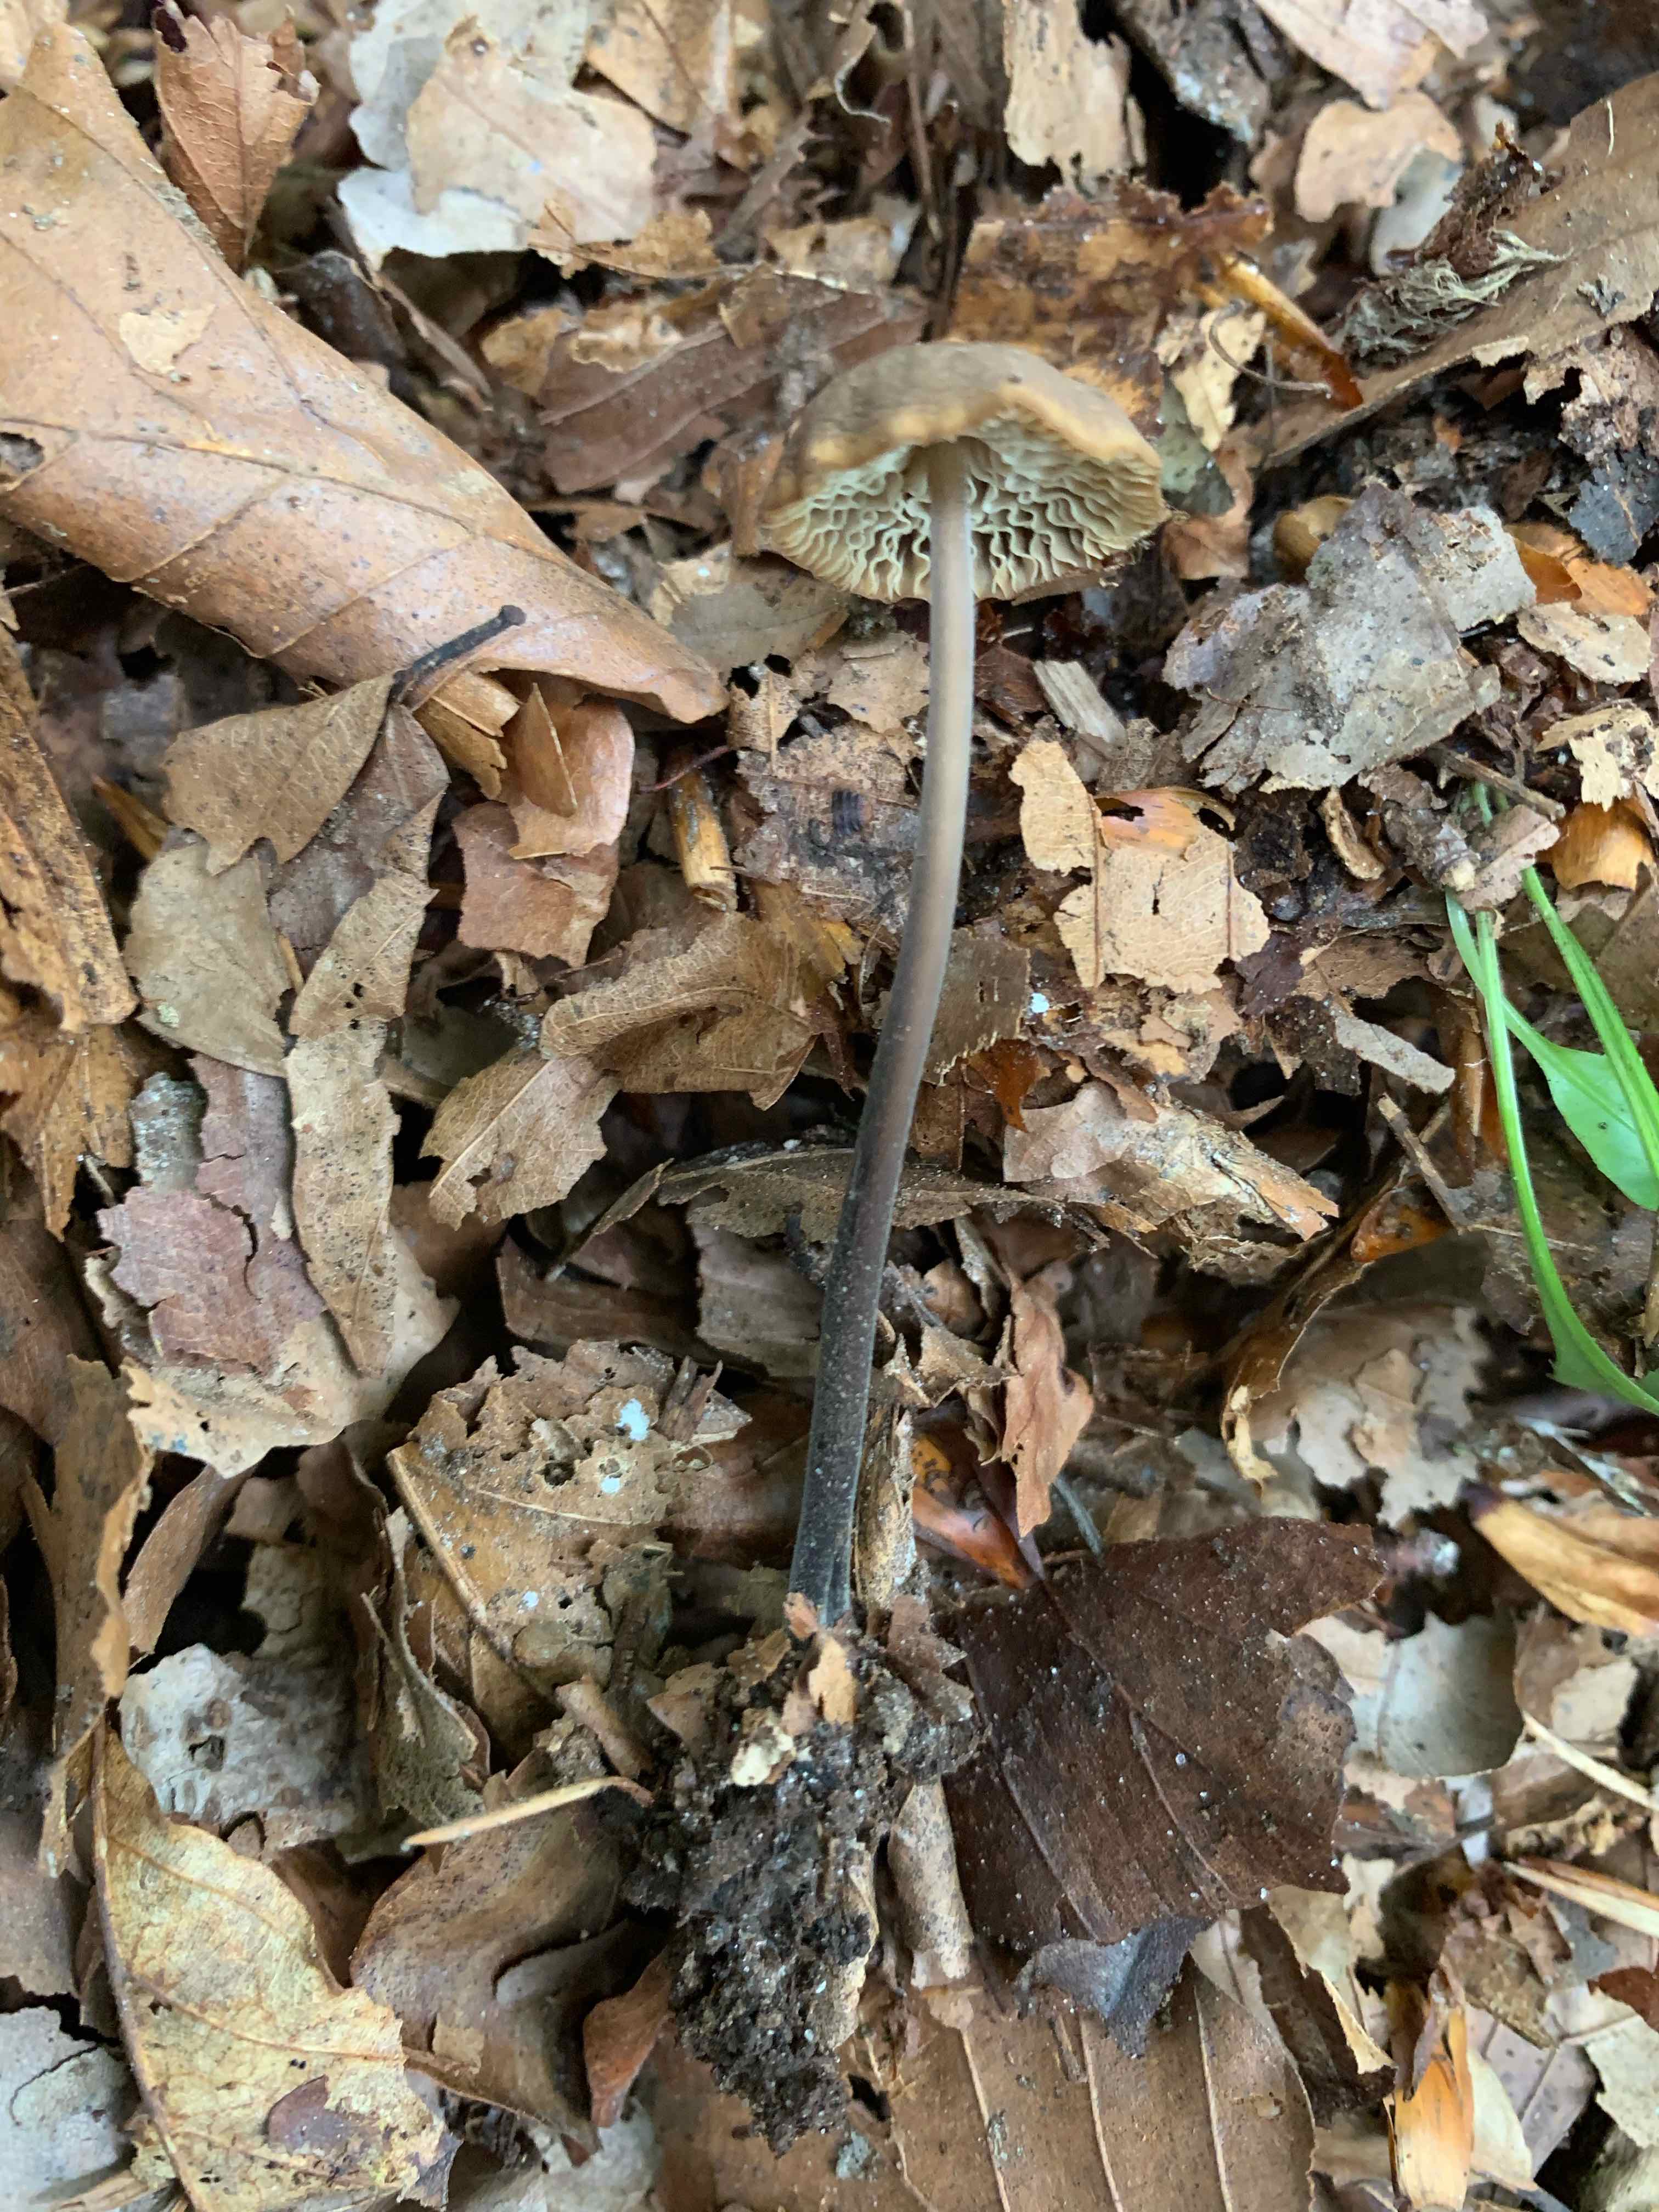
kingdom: Fungi
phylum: Basidiomycota
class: Agaricomycetes
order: Agaricales
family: Omphalotaceae
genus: Mycetinis
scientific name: Mycetinis alliaceus
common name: stor løghat
